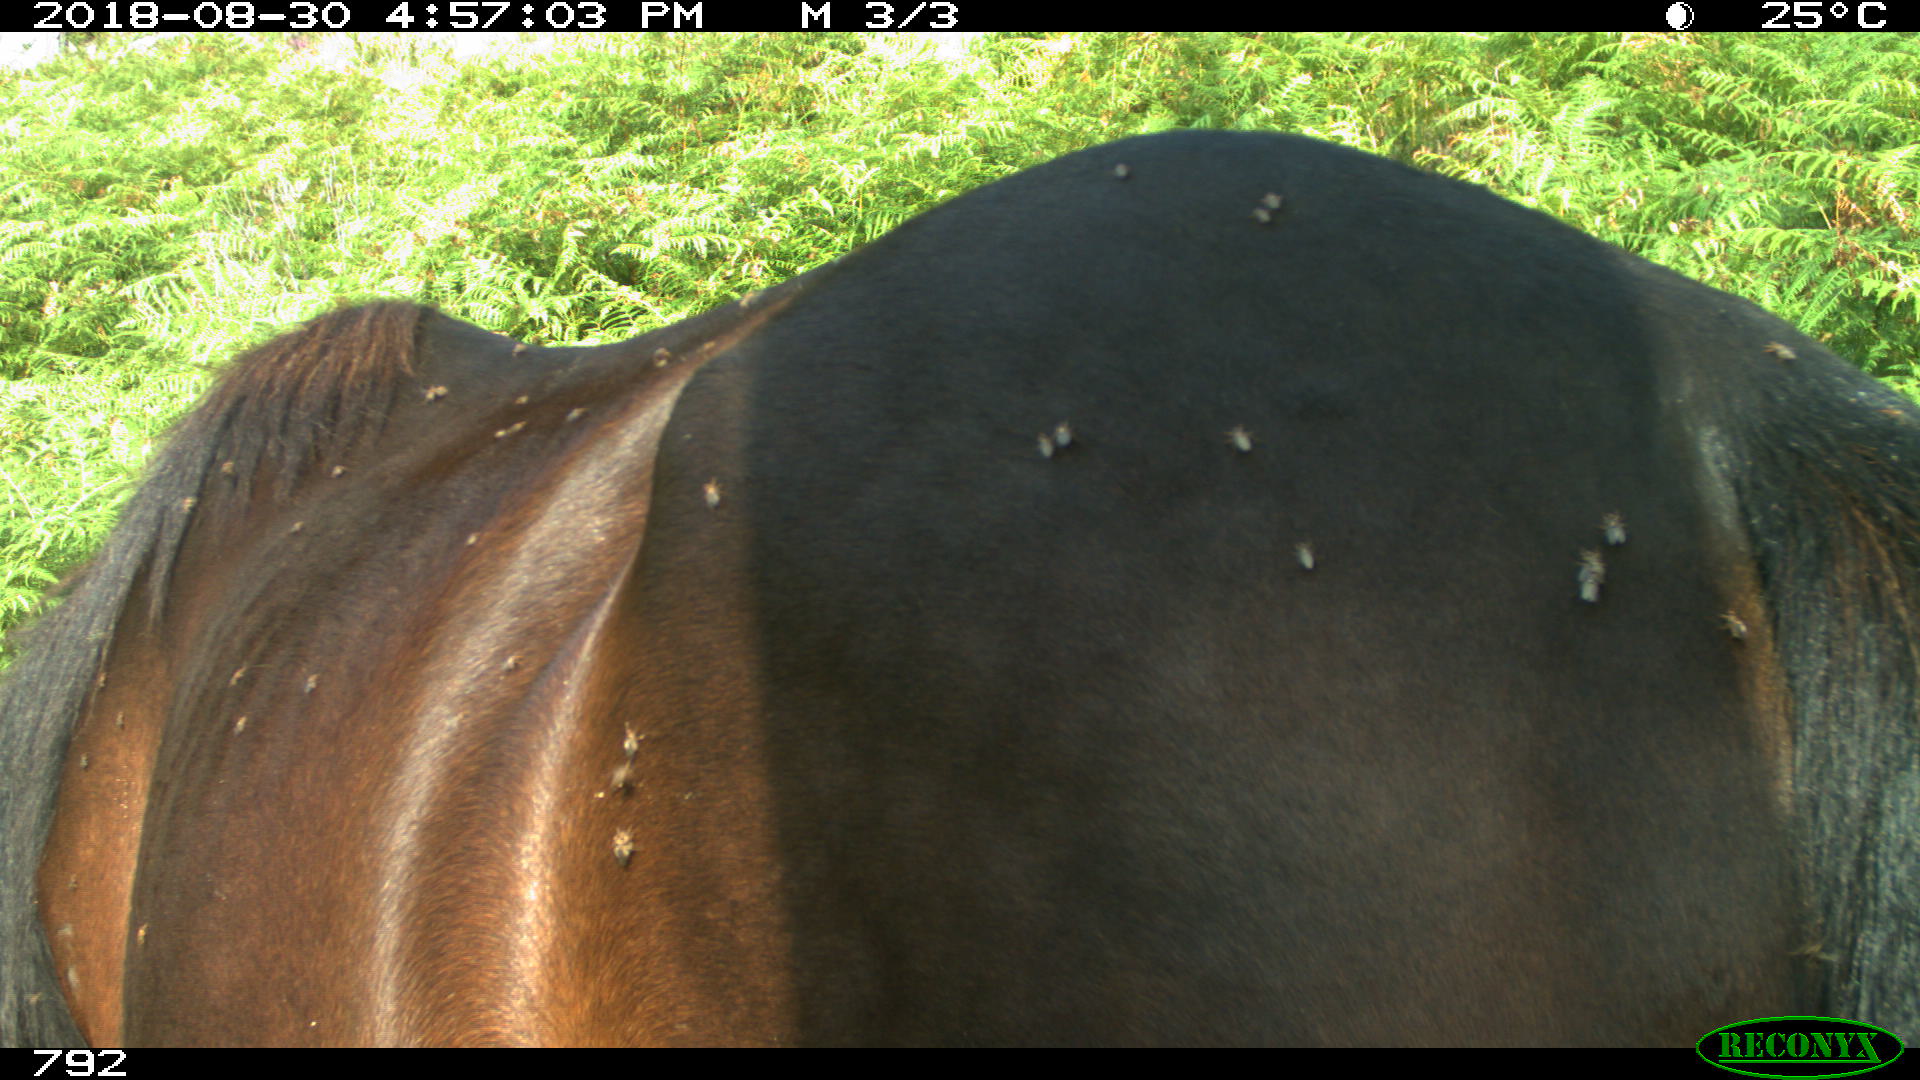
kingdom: Animalia
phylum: Chordata
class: Mammalia
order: Perissodactyla
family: Equidae
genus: Equus
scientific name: Equus caballus
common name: Horse
